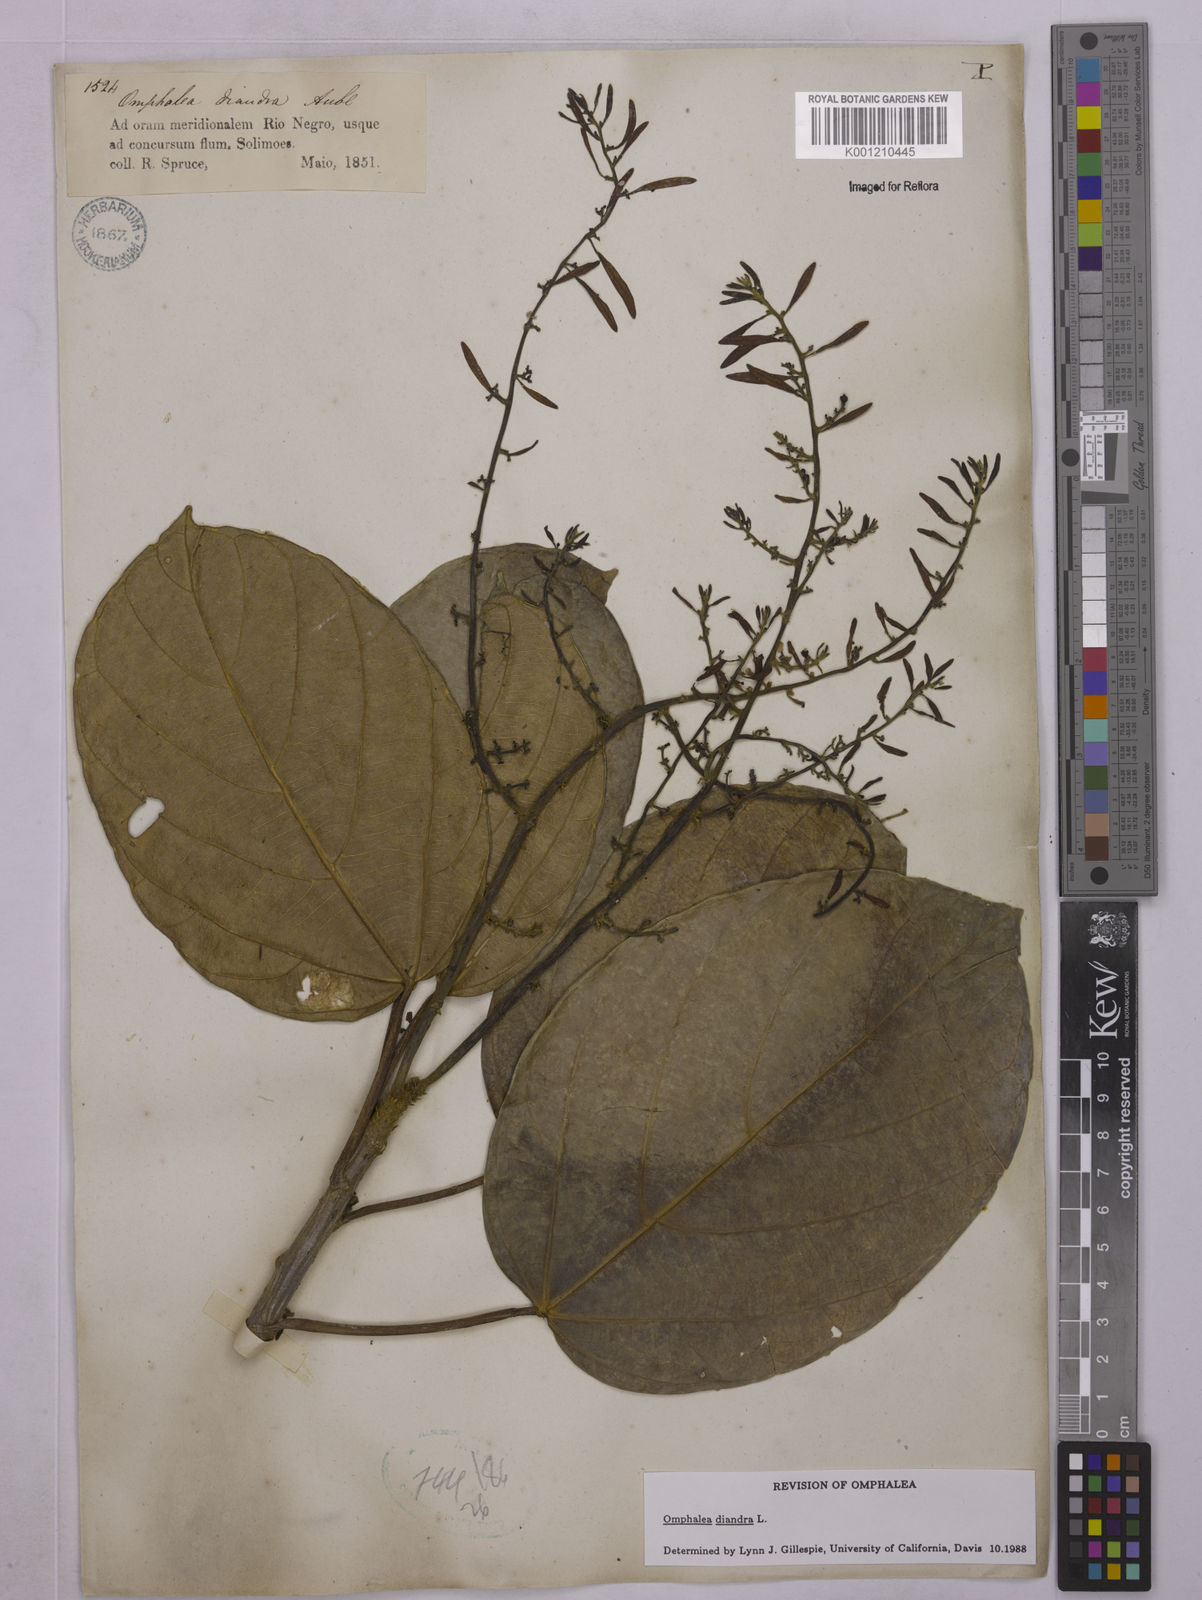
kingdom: Plantae
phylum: Tracheophyta
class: Magnoliopsida
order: Malpighiales
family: Euphorbiaceae
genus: Omphalea
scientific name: Omphalea diandra
